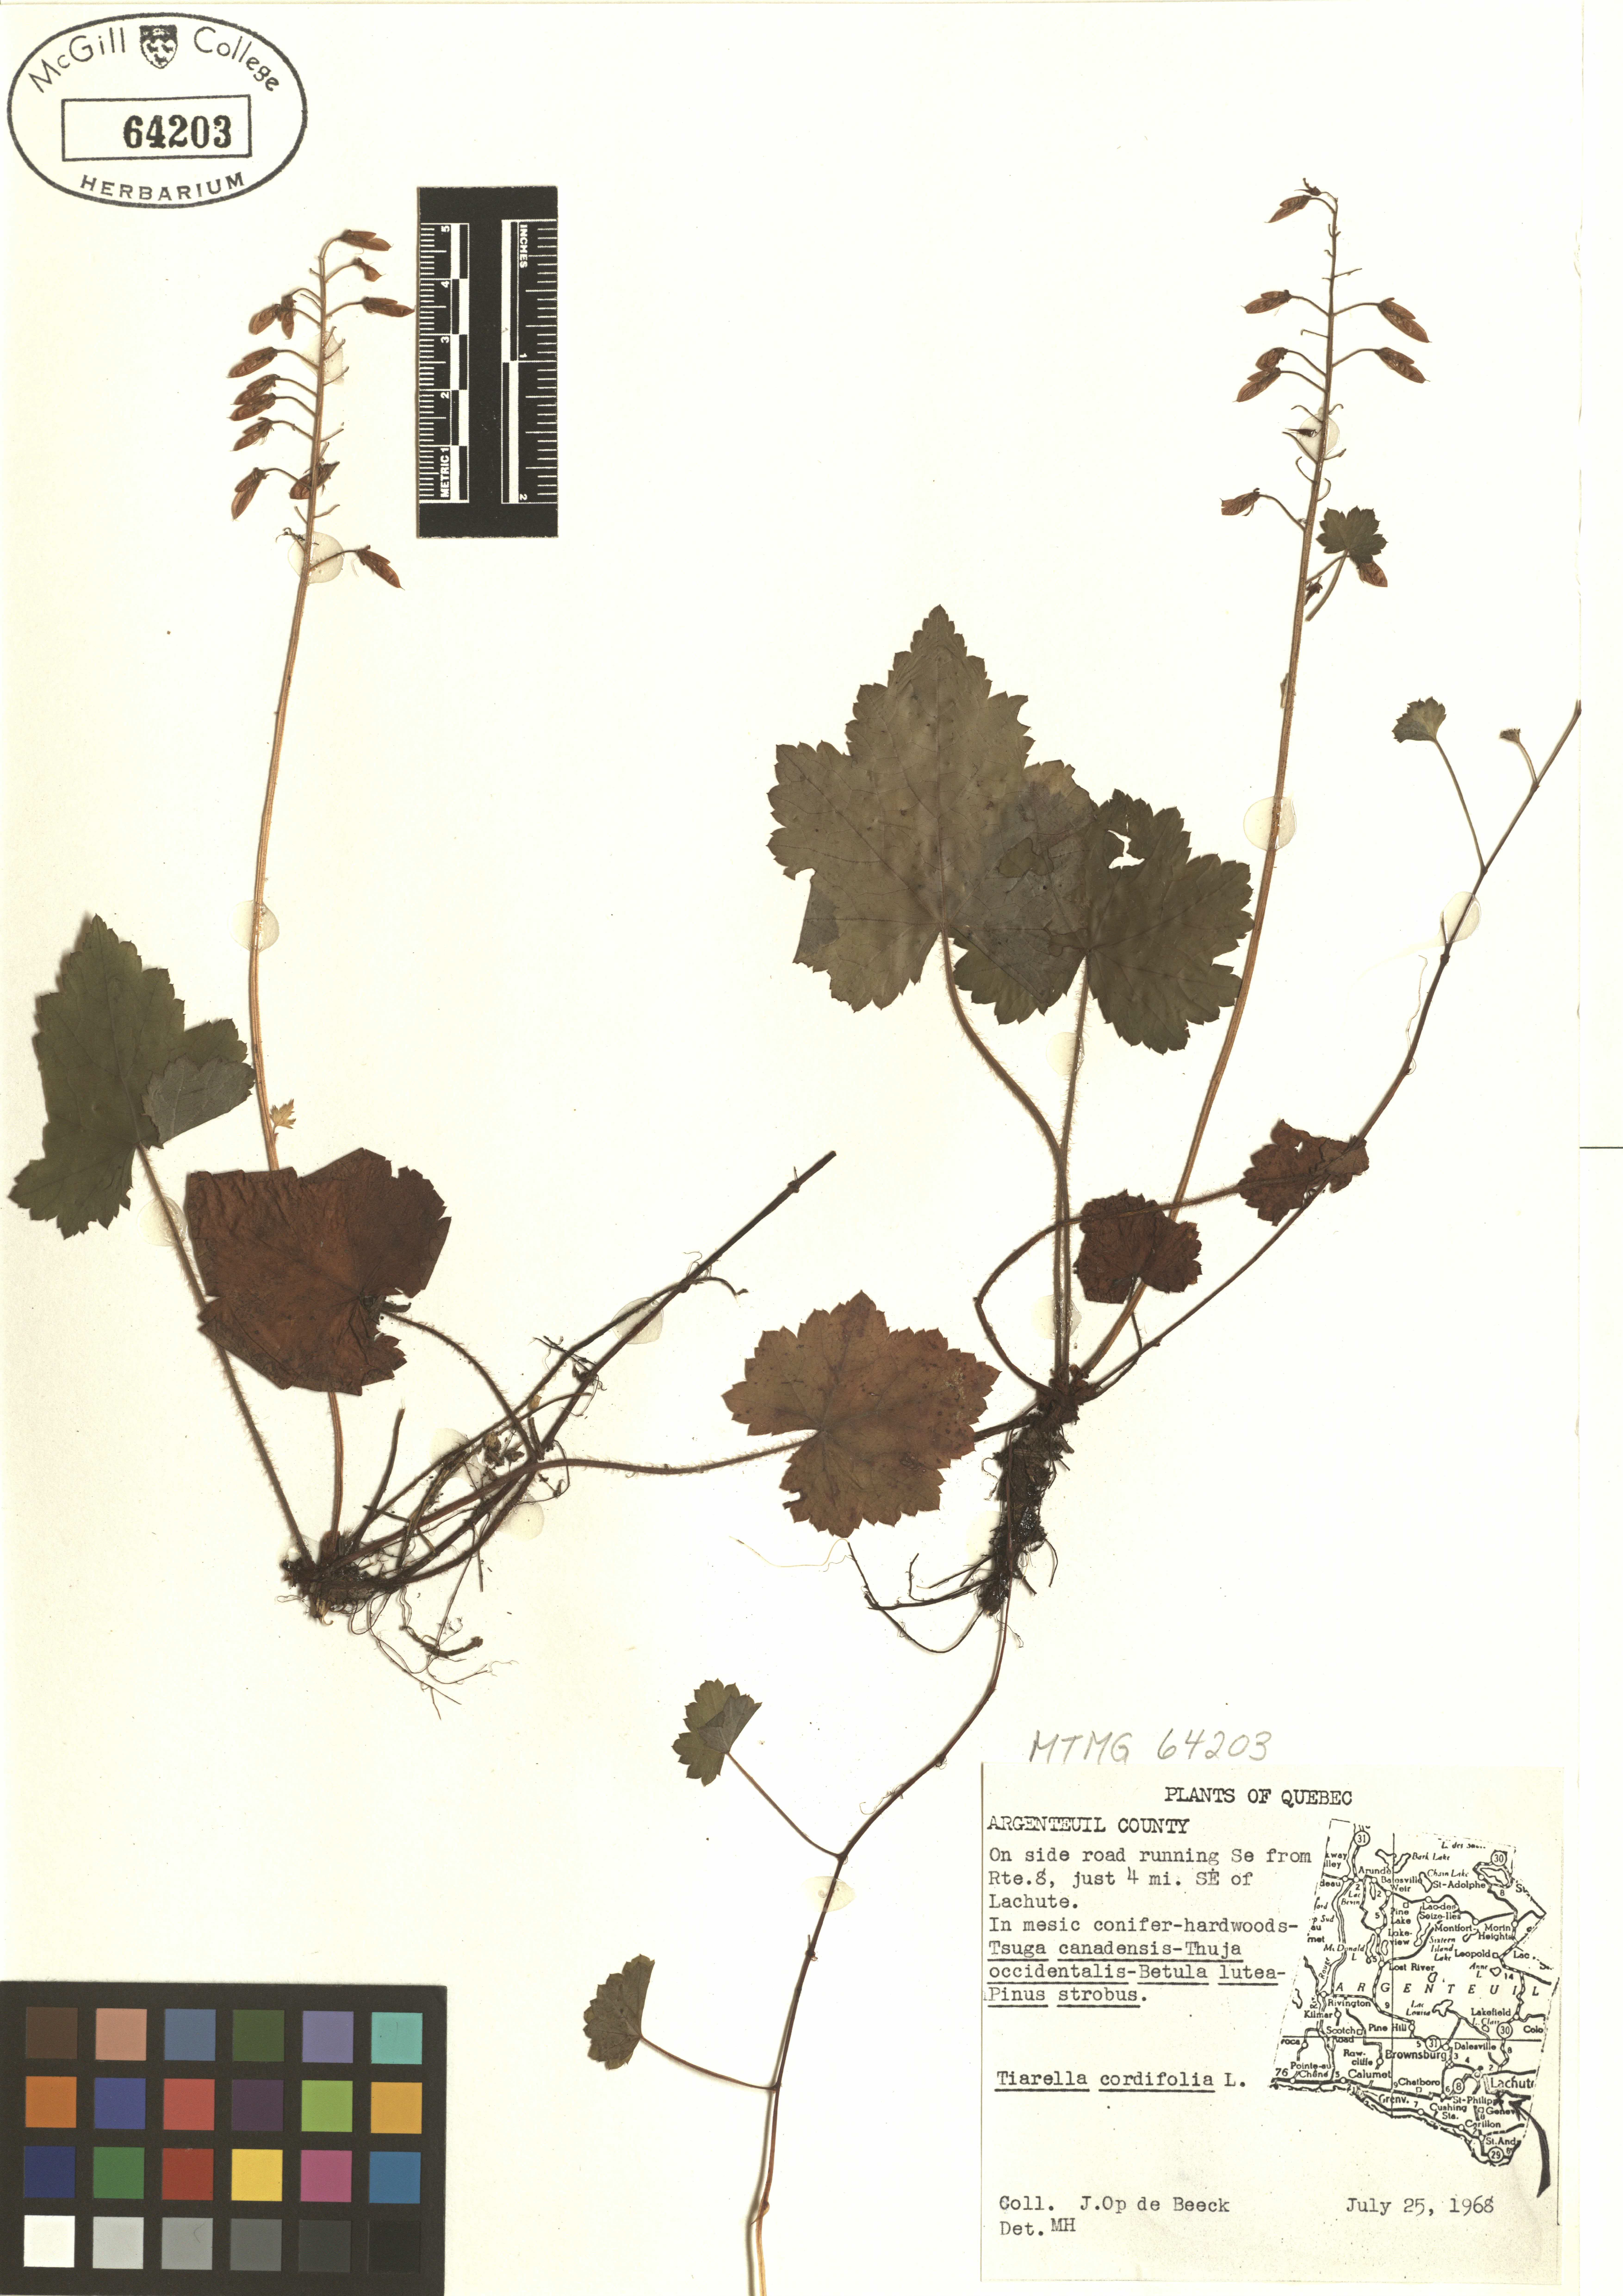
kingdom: Plantae
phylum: Tracheophyta
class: Magnoliopsida
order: Saxifragales
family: Saxifragaceae
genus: Tiarella
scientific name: Tiarella cordifolia
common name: Foamflower
